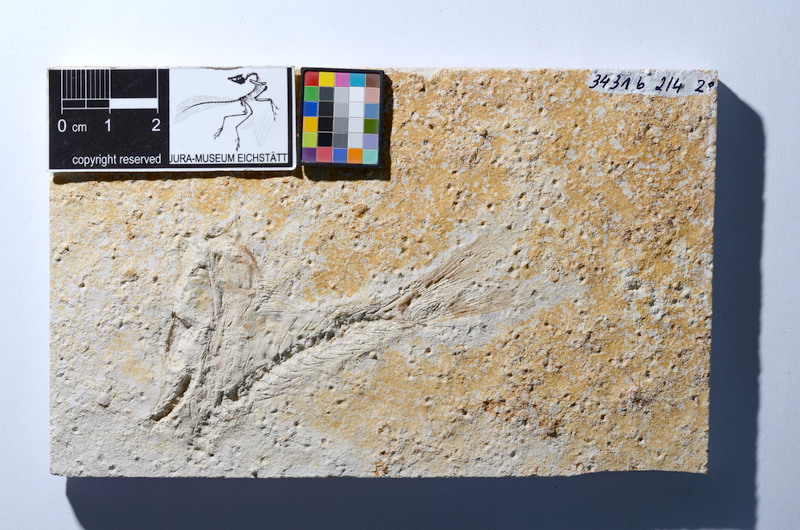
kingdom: Animalia
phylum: Chordata
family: Ascalaboidae
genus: Tharsis
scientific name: Tharsis dubius
